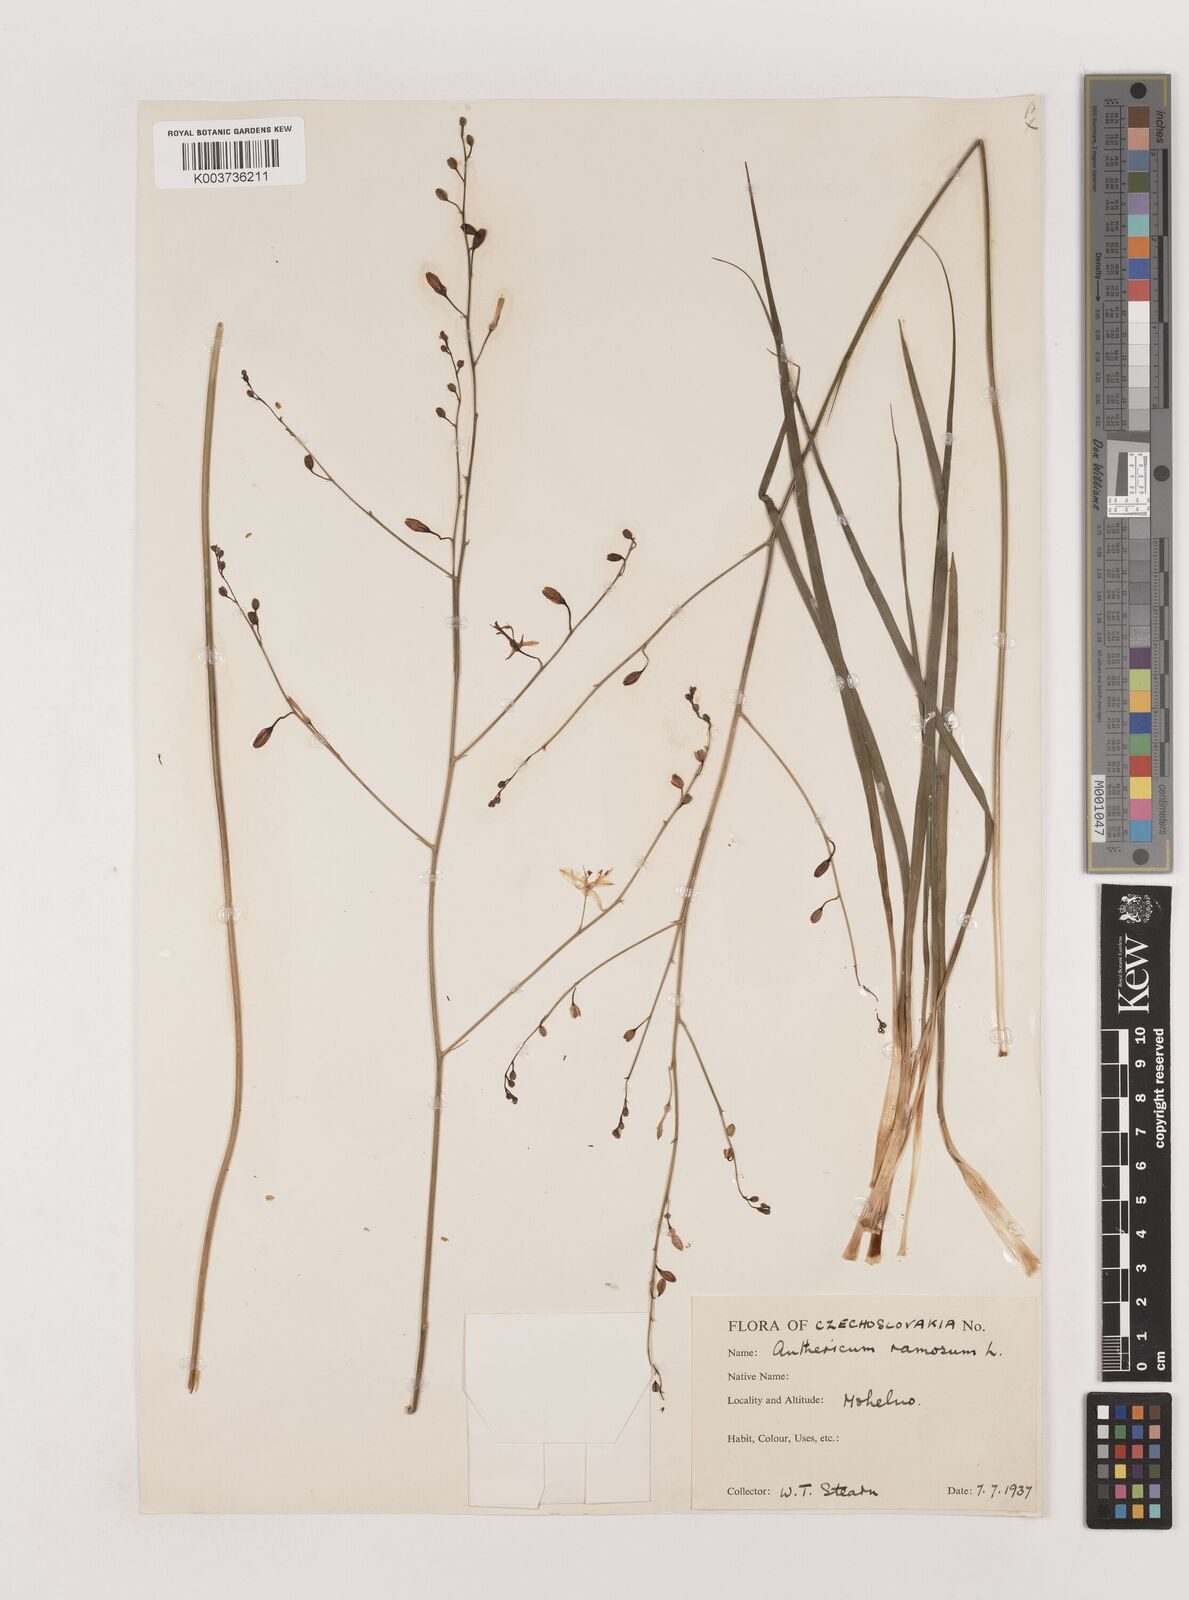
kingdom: Plantae
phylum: Tracheophyta
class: Liliopsida
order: Asparagales
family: Asparagaceae
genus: Chlorophytum
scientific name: Chlorophytum comosum
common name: Spider plant
